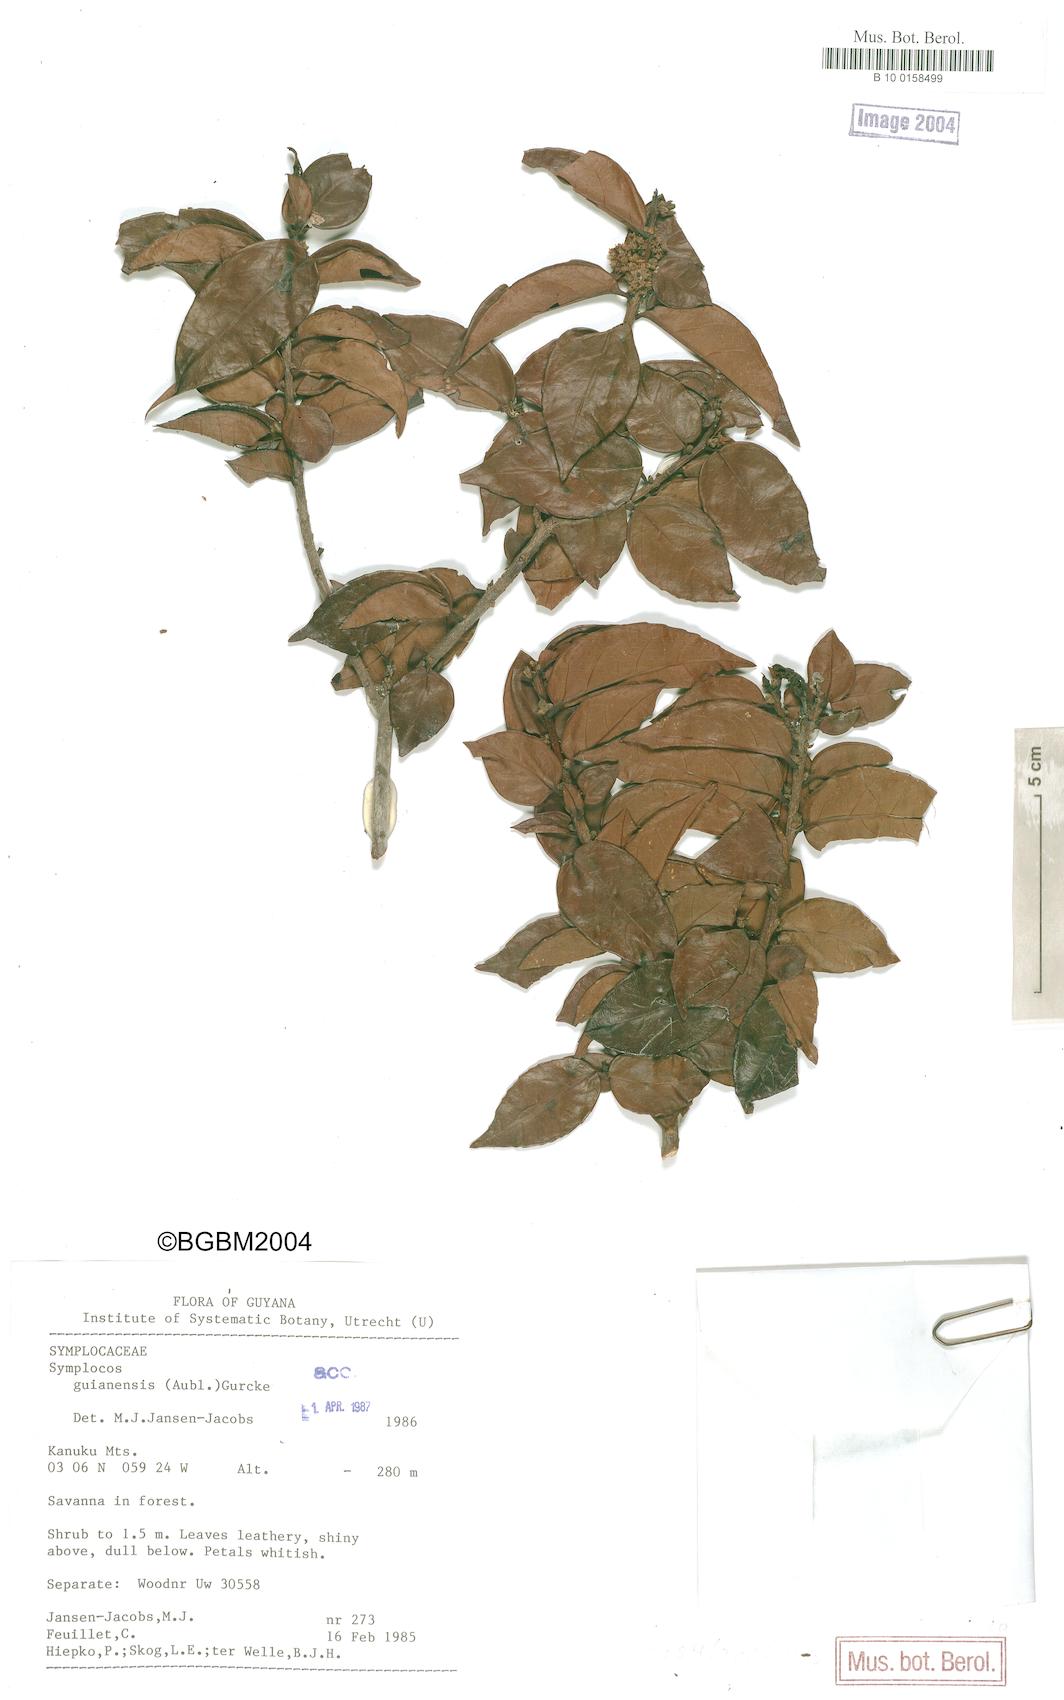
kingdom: Plantae
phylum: Tracheophyta
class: Magnoliopsida
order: Ericales
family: Symplocaceae
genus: Symplocos
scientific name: Symplocos guianensis
